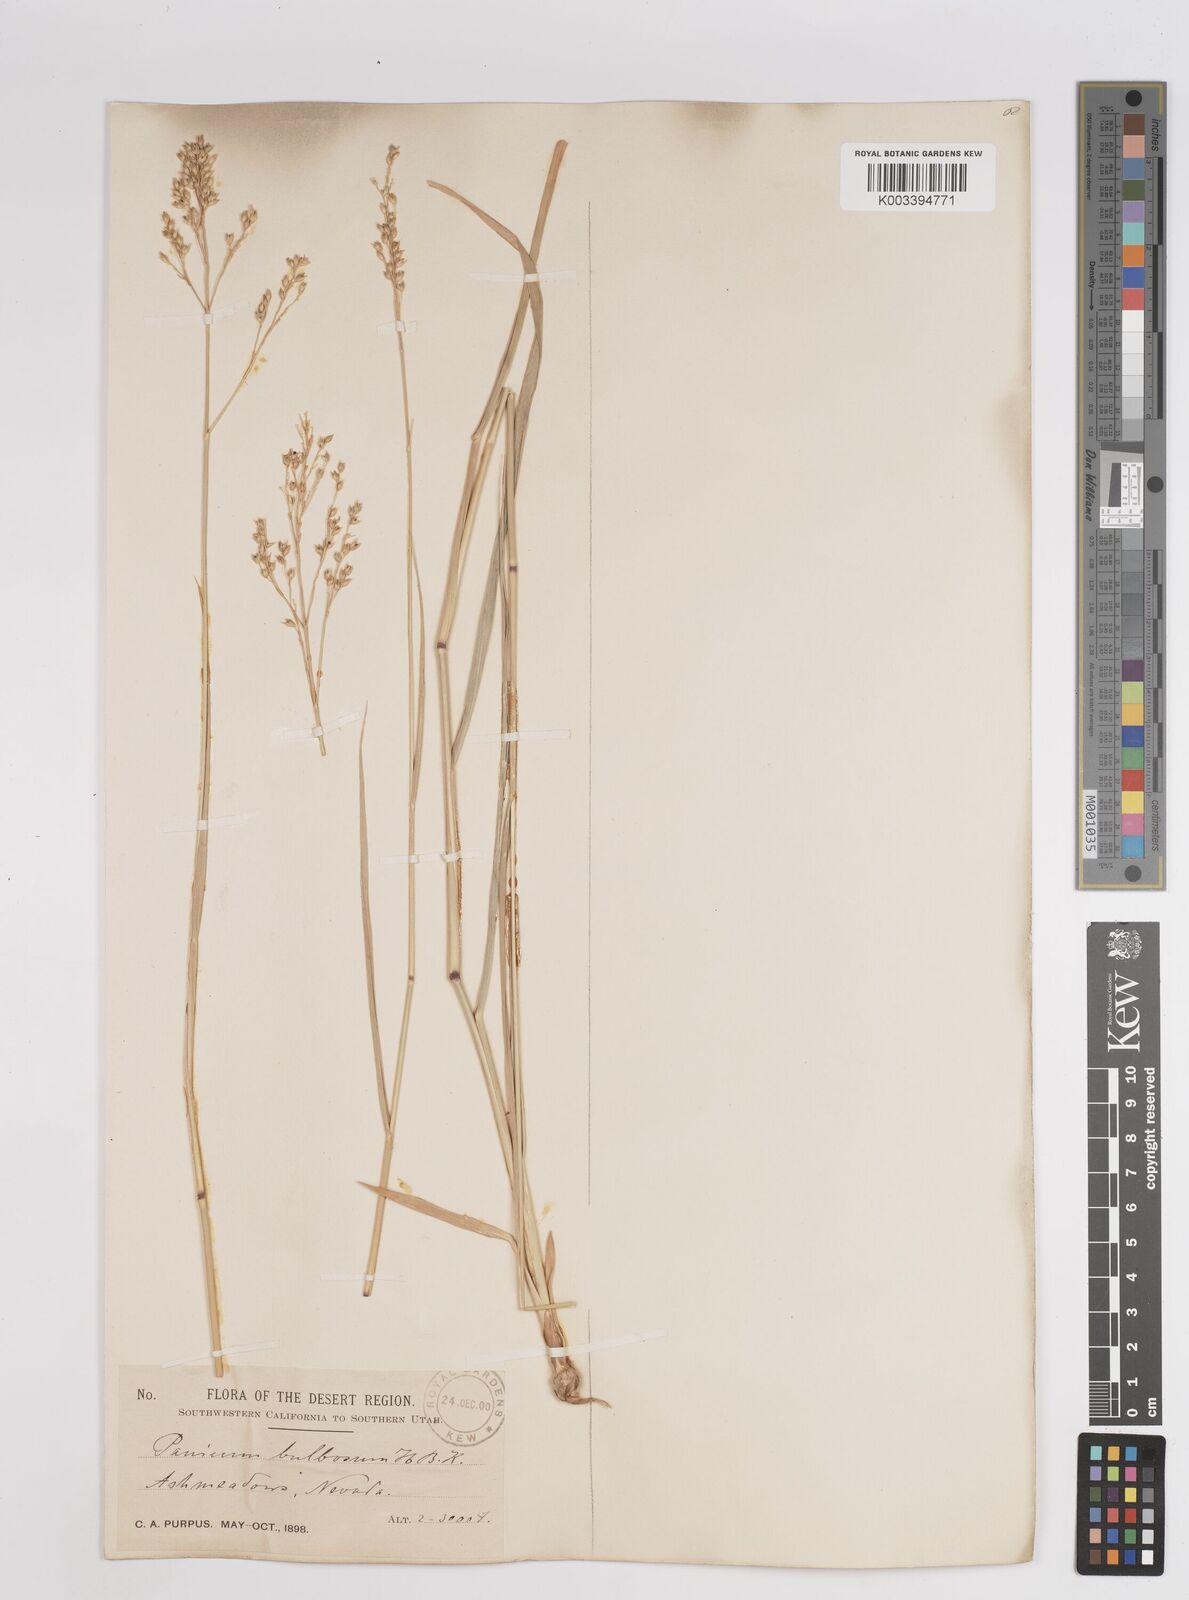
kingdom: Plantae
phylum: Tracheophyta
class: Liliopsida
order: Poales
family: Poaceae
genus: Zuloagaea
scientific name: Zuloagaea bulbosa
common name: Canyon panic grass
